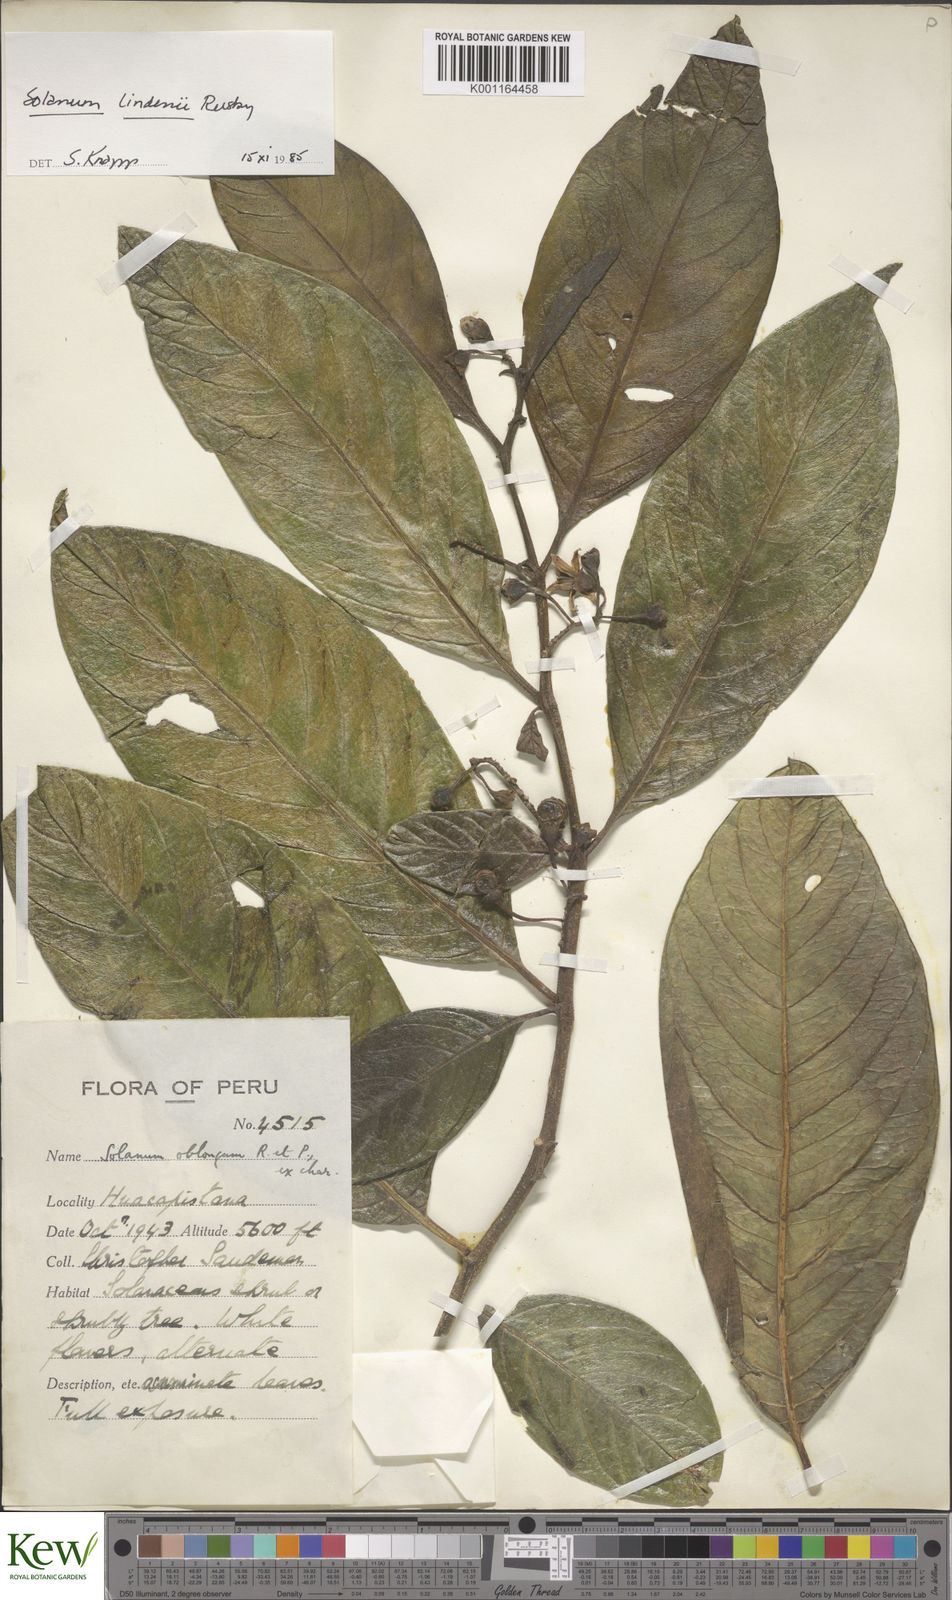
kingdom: Plantae
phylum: Tracheophyta
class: Magnoliopsida
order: Solanales
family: Solanaceae
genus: Solanum
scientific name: Solanum lindenii
